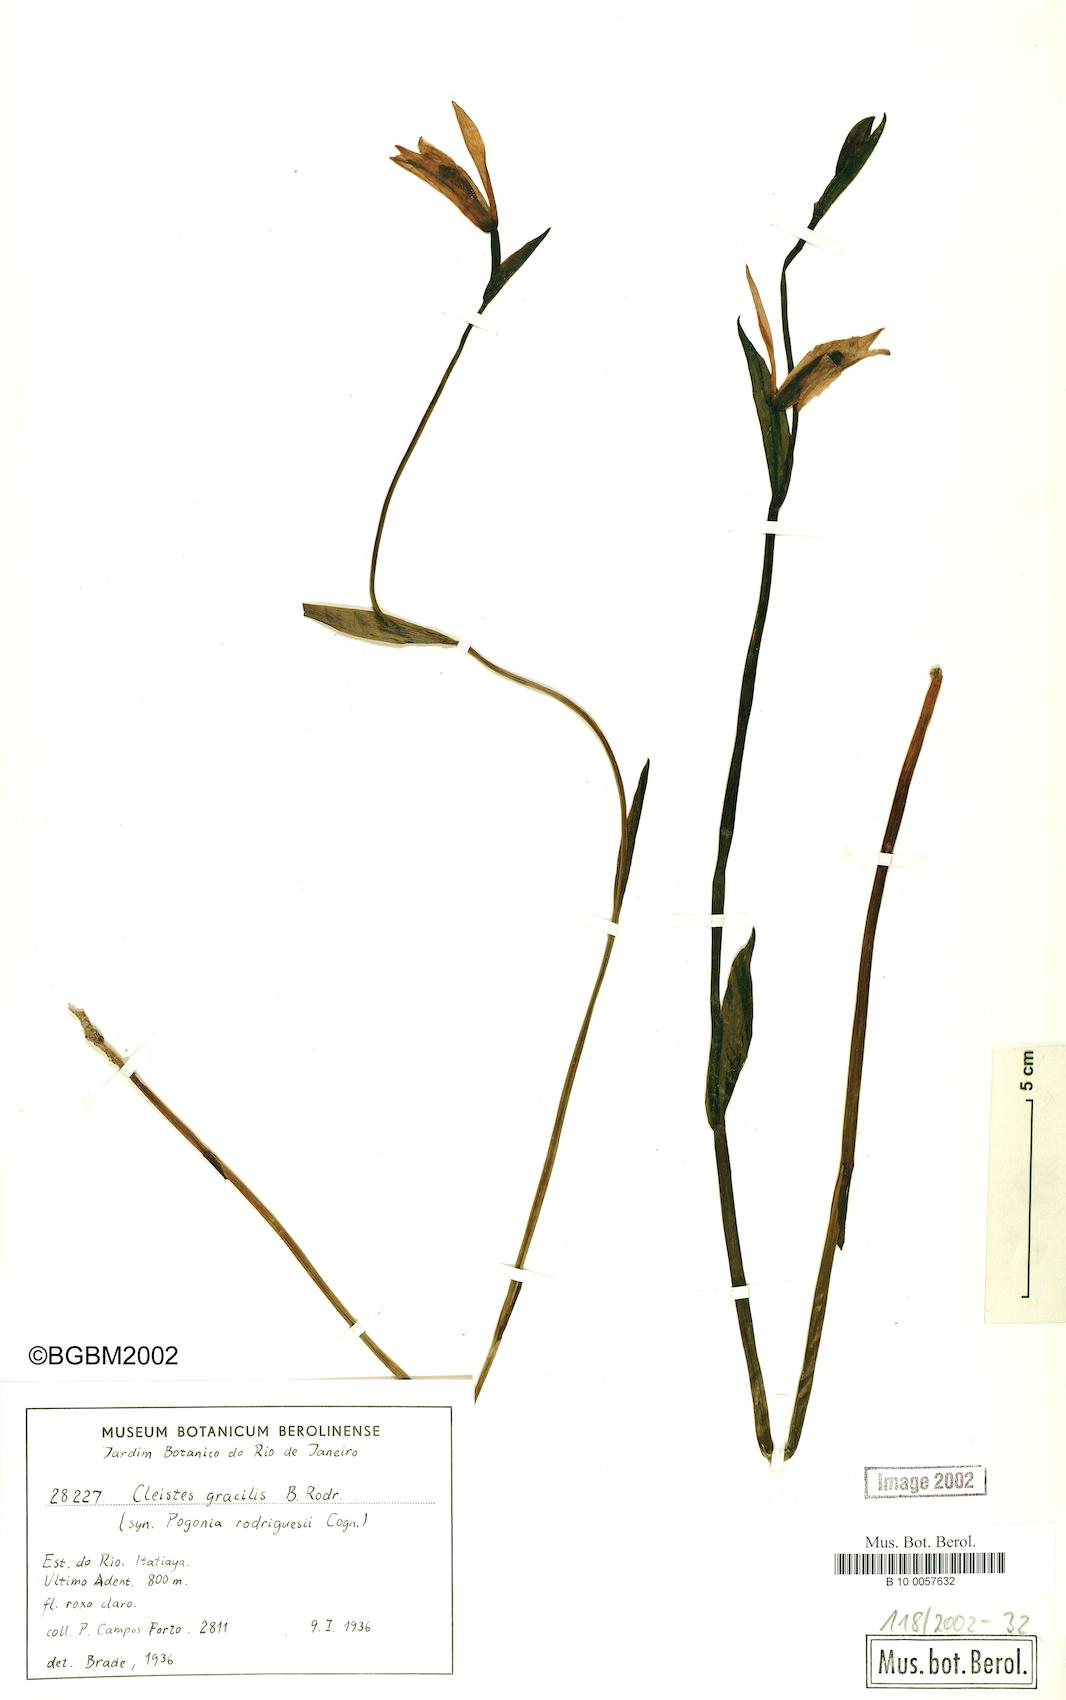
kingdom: Plantae
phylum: Tracheophyta
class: Liliopsida
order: Asparagales
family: Orchidaceae
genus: Cleistes
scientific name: Cleistes rodriguesii
